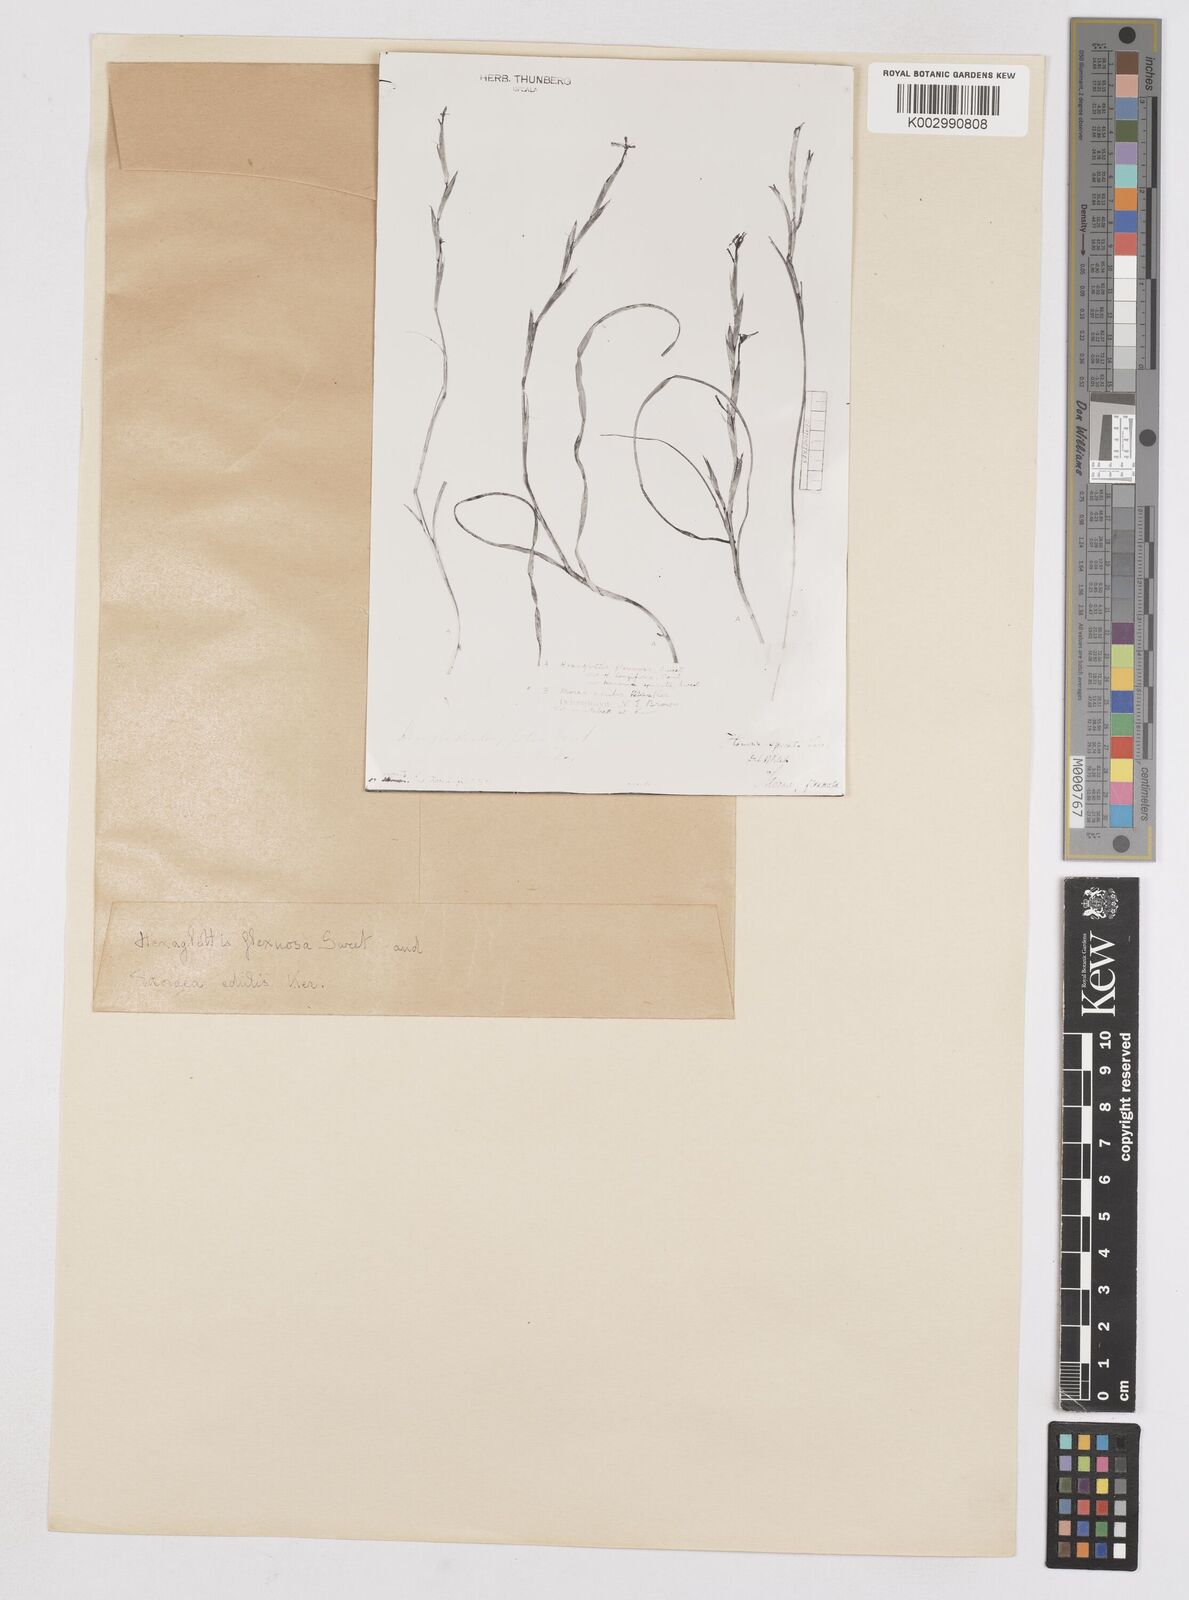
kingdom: Plantae
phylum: Tracheophyta
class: Liliopsida
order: Asparagales
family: Iridaceae
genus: Moraea
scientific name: Moraea lewisiae
